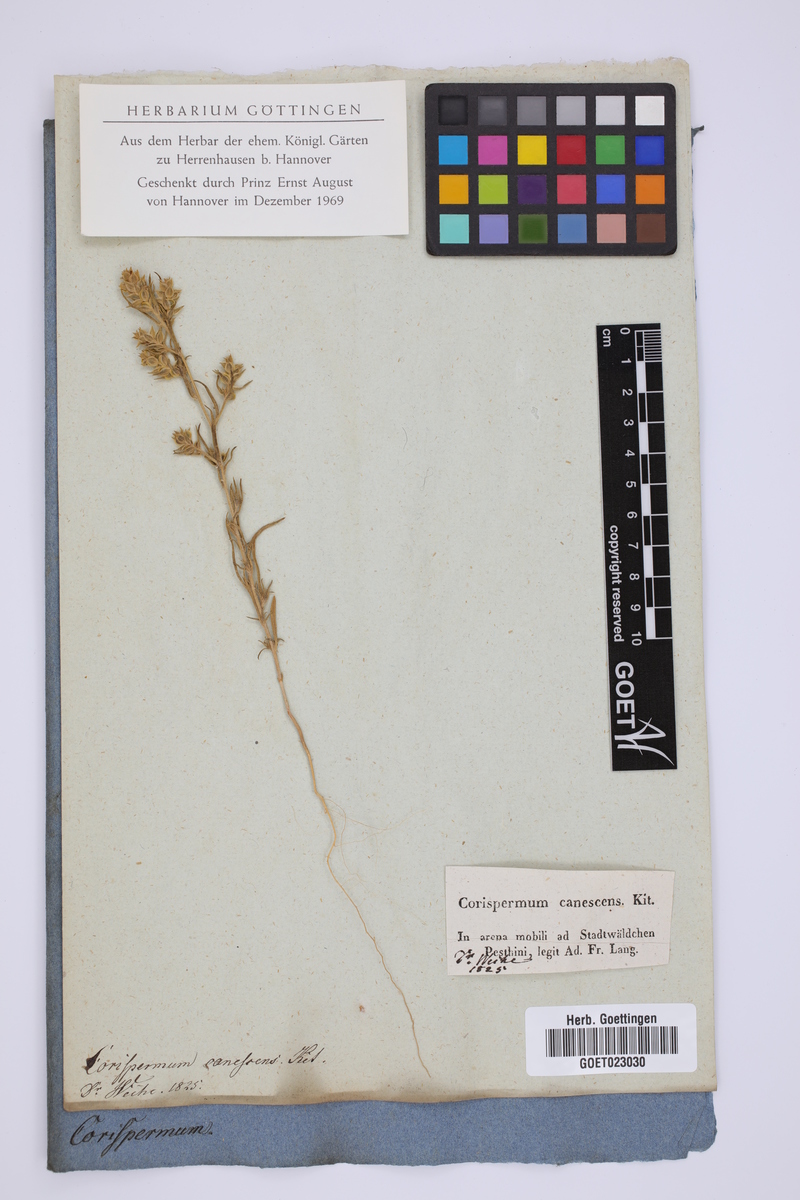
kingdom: Plantae
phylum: Tracheophyta
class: Magnoliopsida
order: Caryophyllales
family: Amaranthaceae
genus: Corispermum
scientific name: Corispermum canescens
